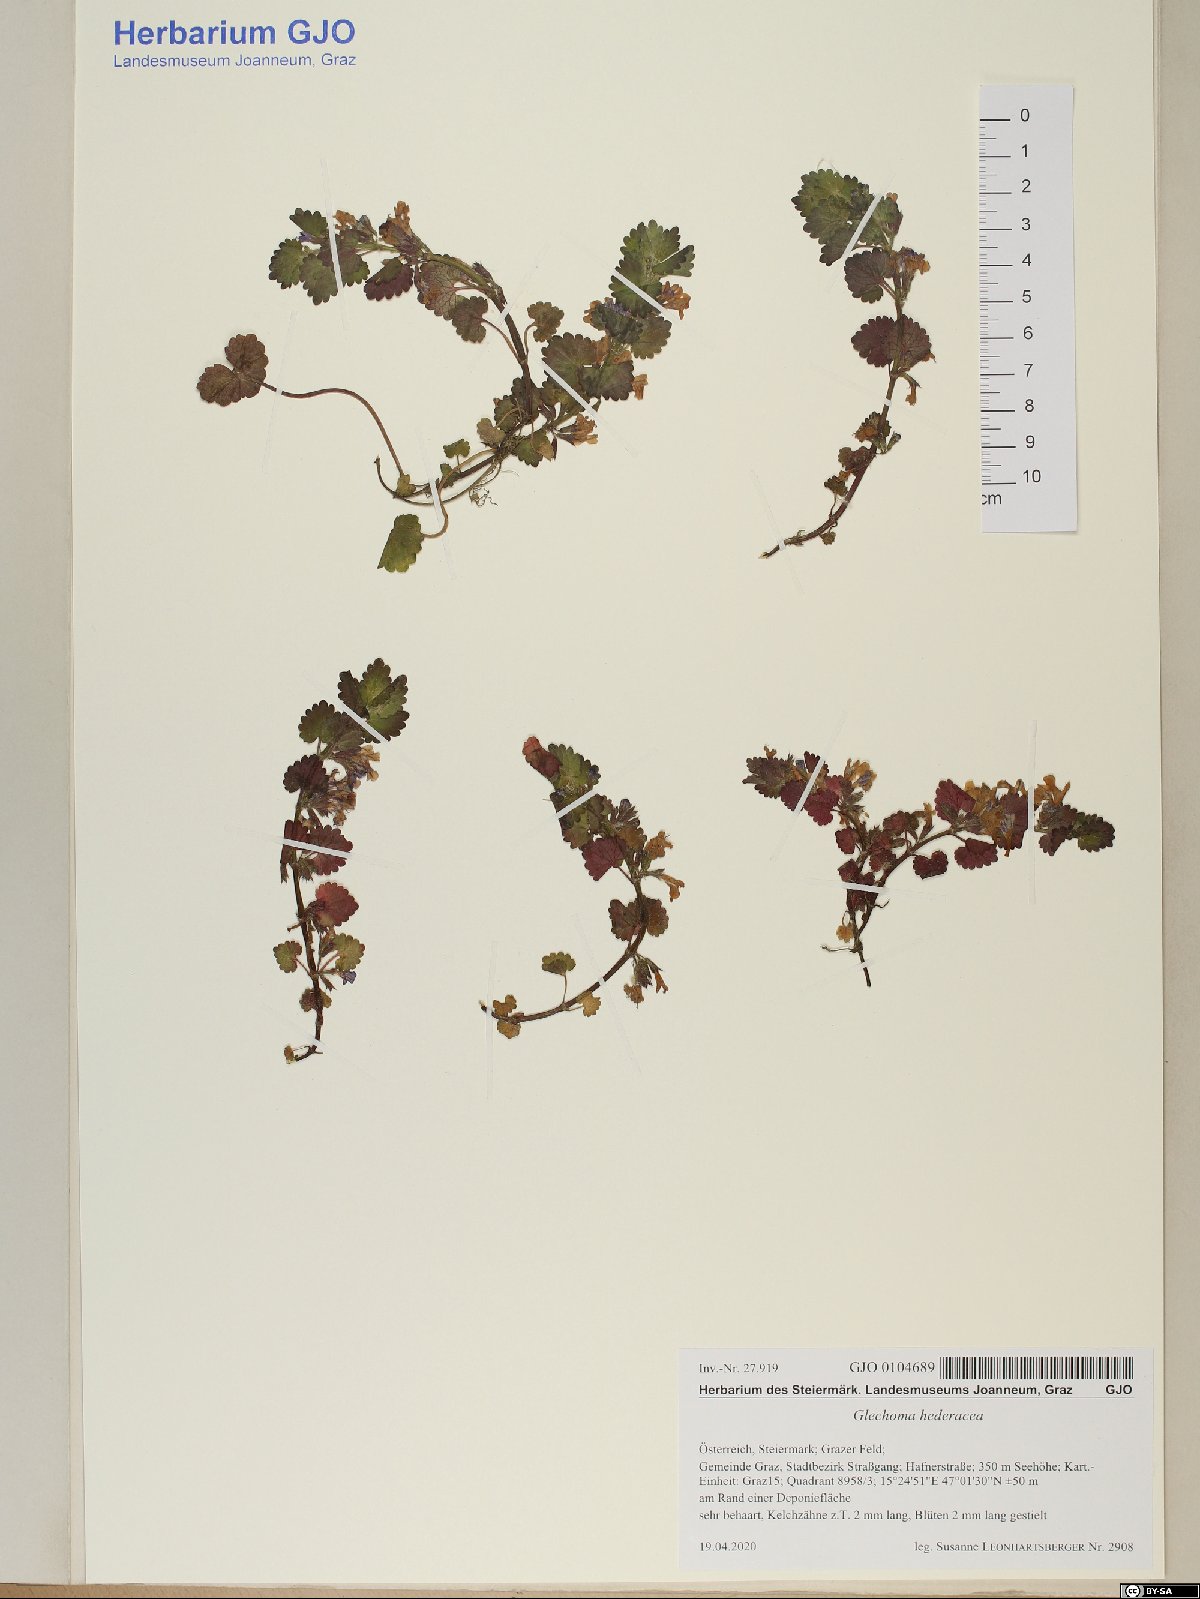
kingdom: Plantae
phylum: Tracheophyta
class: Magnoliopsida
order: Lamiales
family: Lamiaceae
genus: Glechoma
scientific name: Glechoma hederacea
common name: Ground ivy
